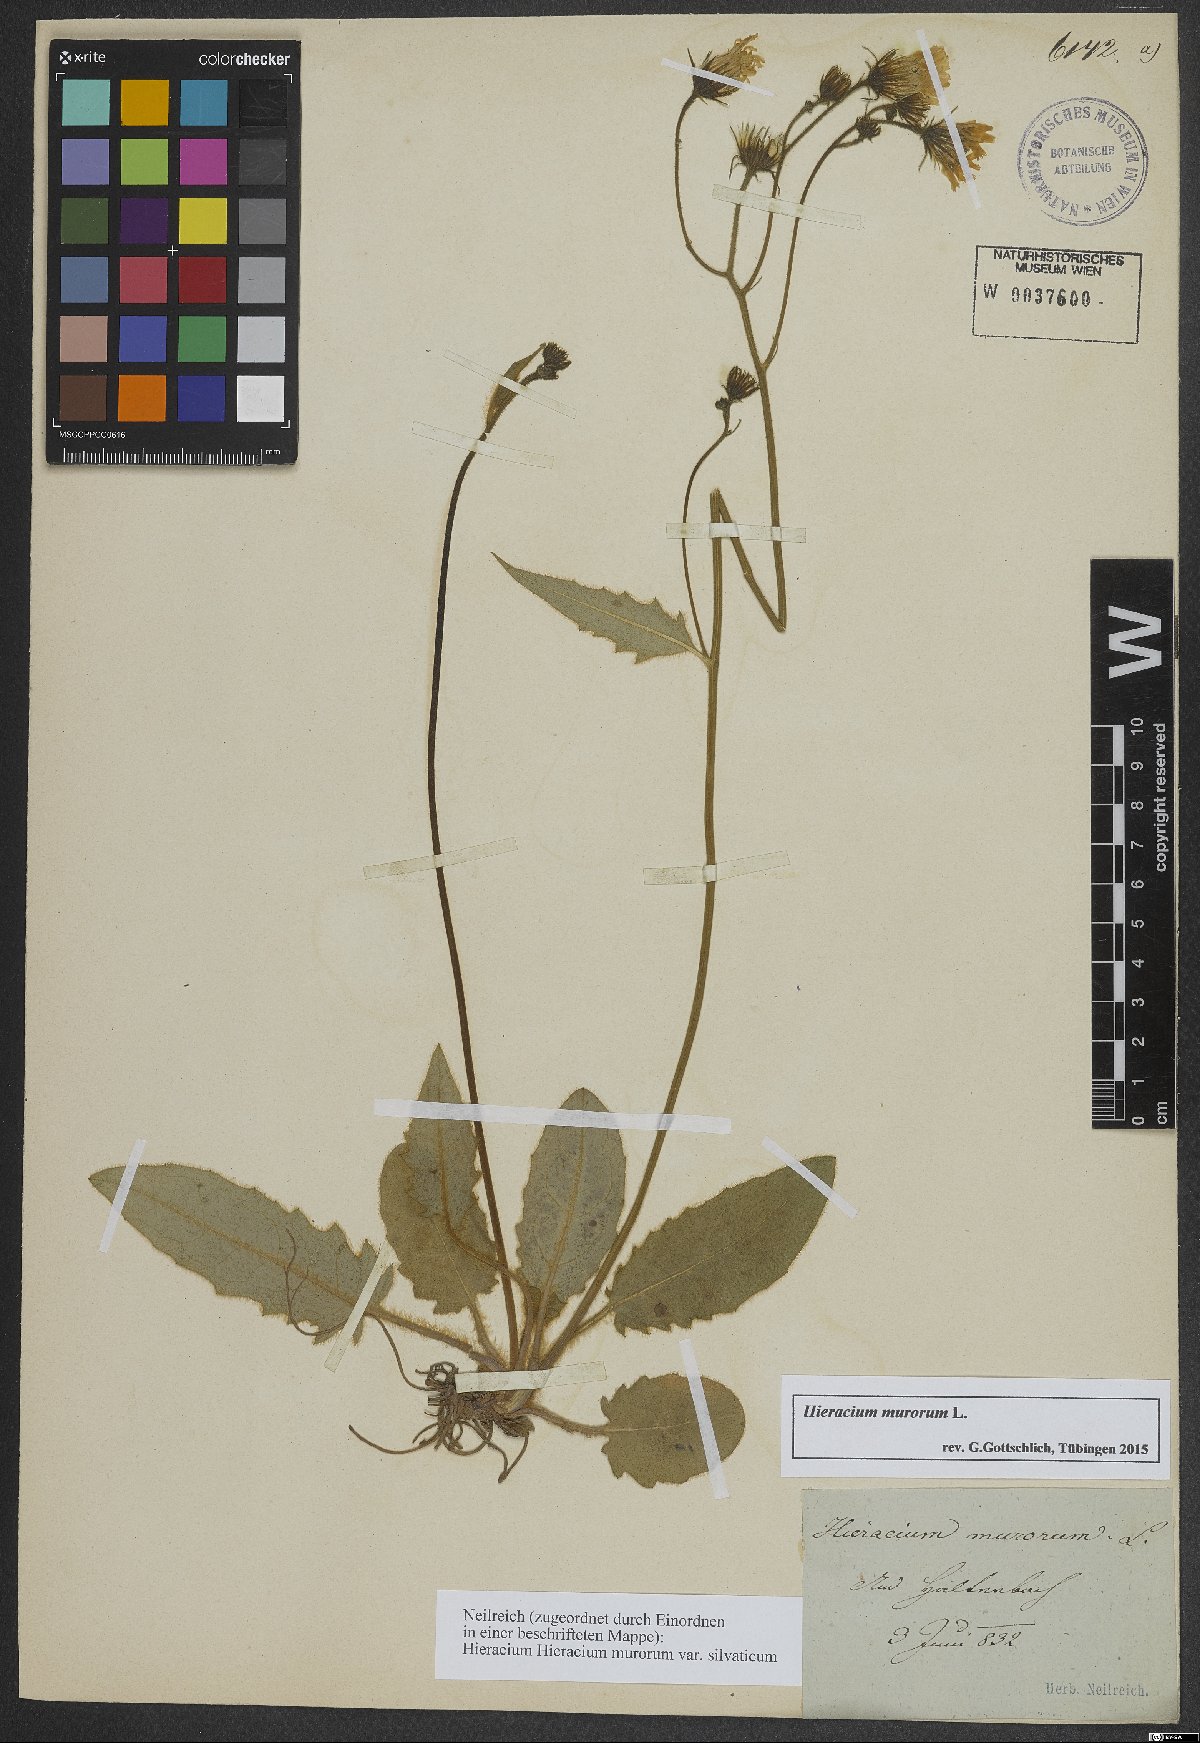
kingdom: Plantae
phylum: Tracheophyta
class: Magnoliopsida
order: Asterales
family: Asteraceae
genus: Hieracium
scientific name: Hieracium murorum
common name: Wall hawkweed
